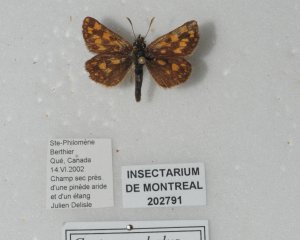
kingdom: Animalia
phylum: Arthropoda
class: Insecta
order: Lepidoptera
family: Hesperiidae
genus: Carterocephalus
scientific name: Carterocephalus palaemon
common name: Chequered Skipper
